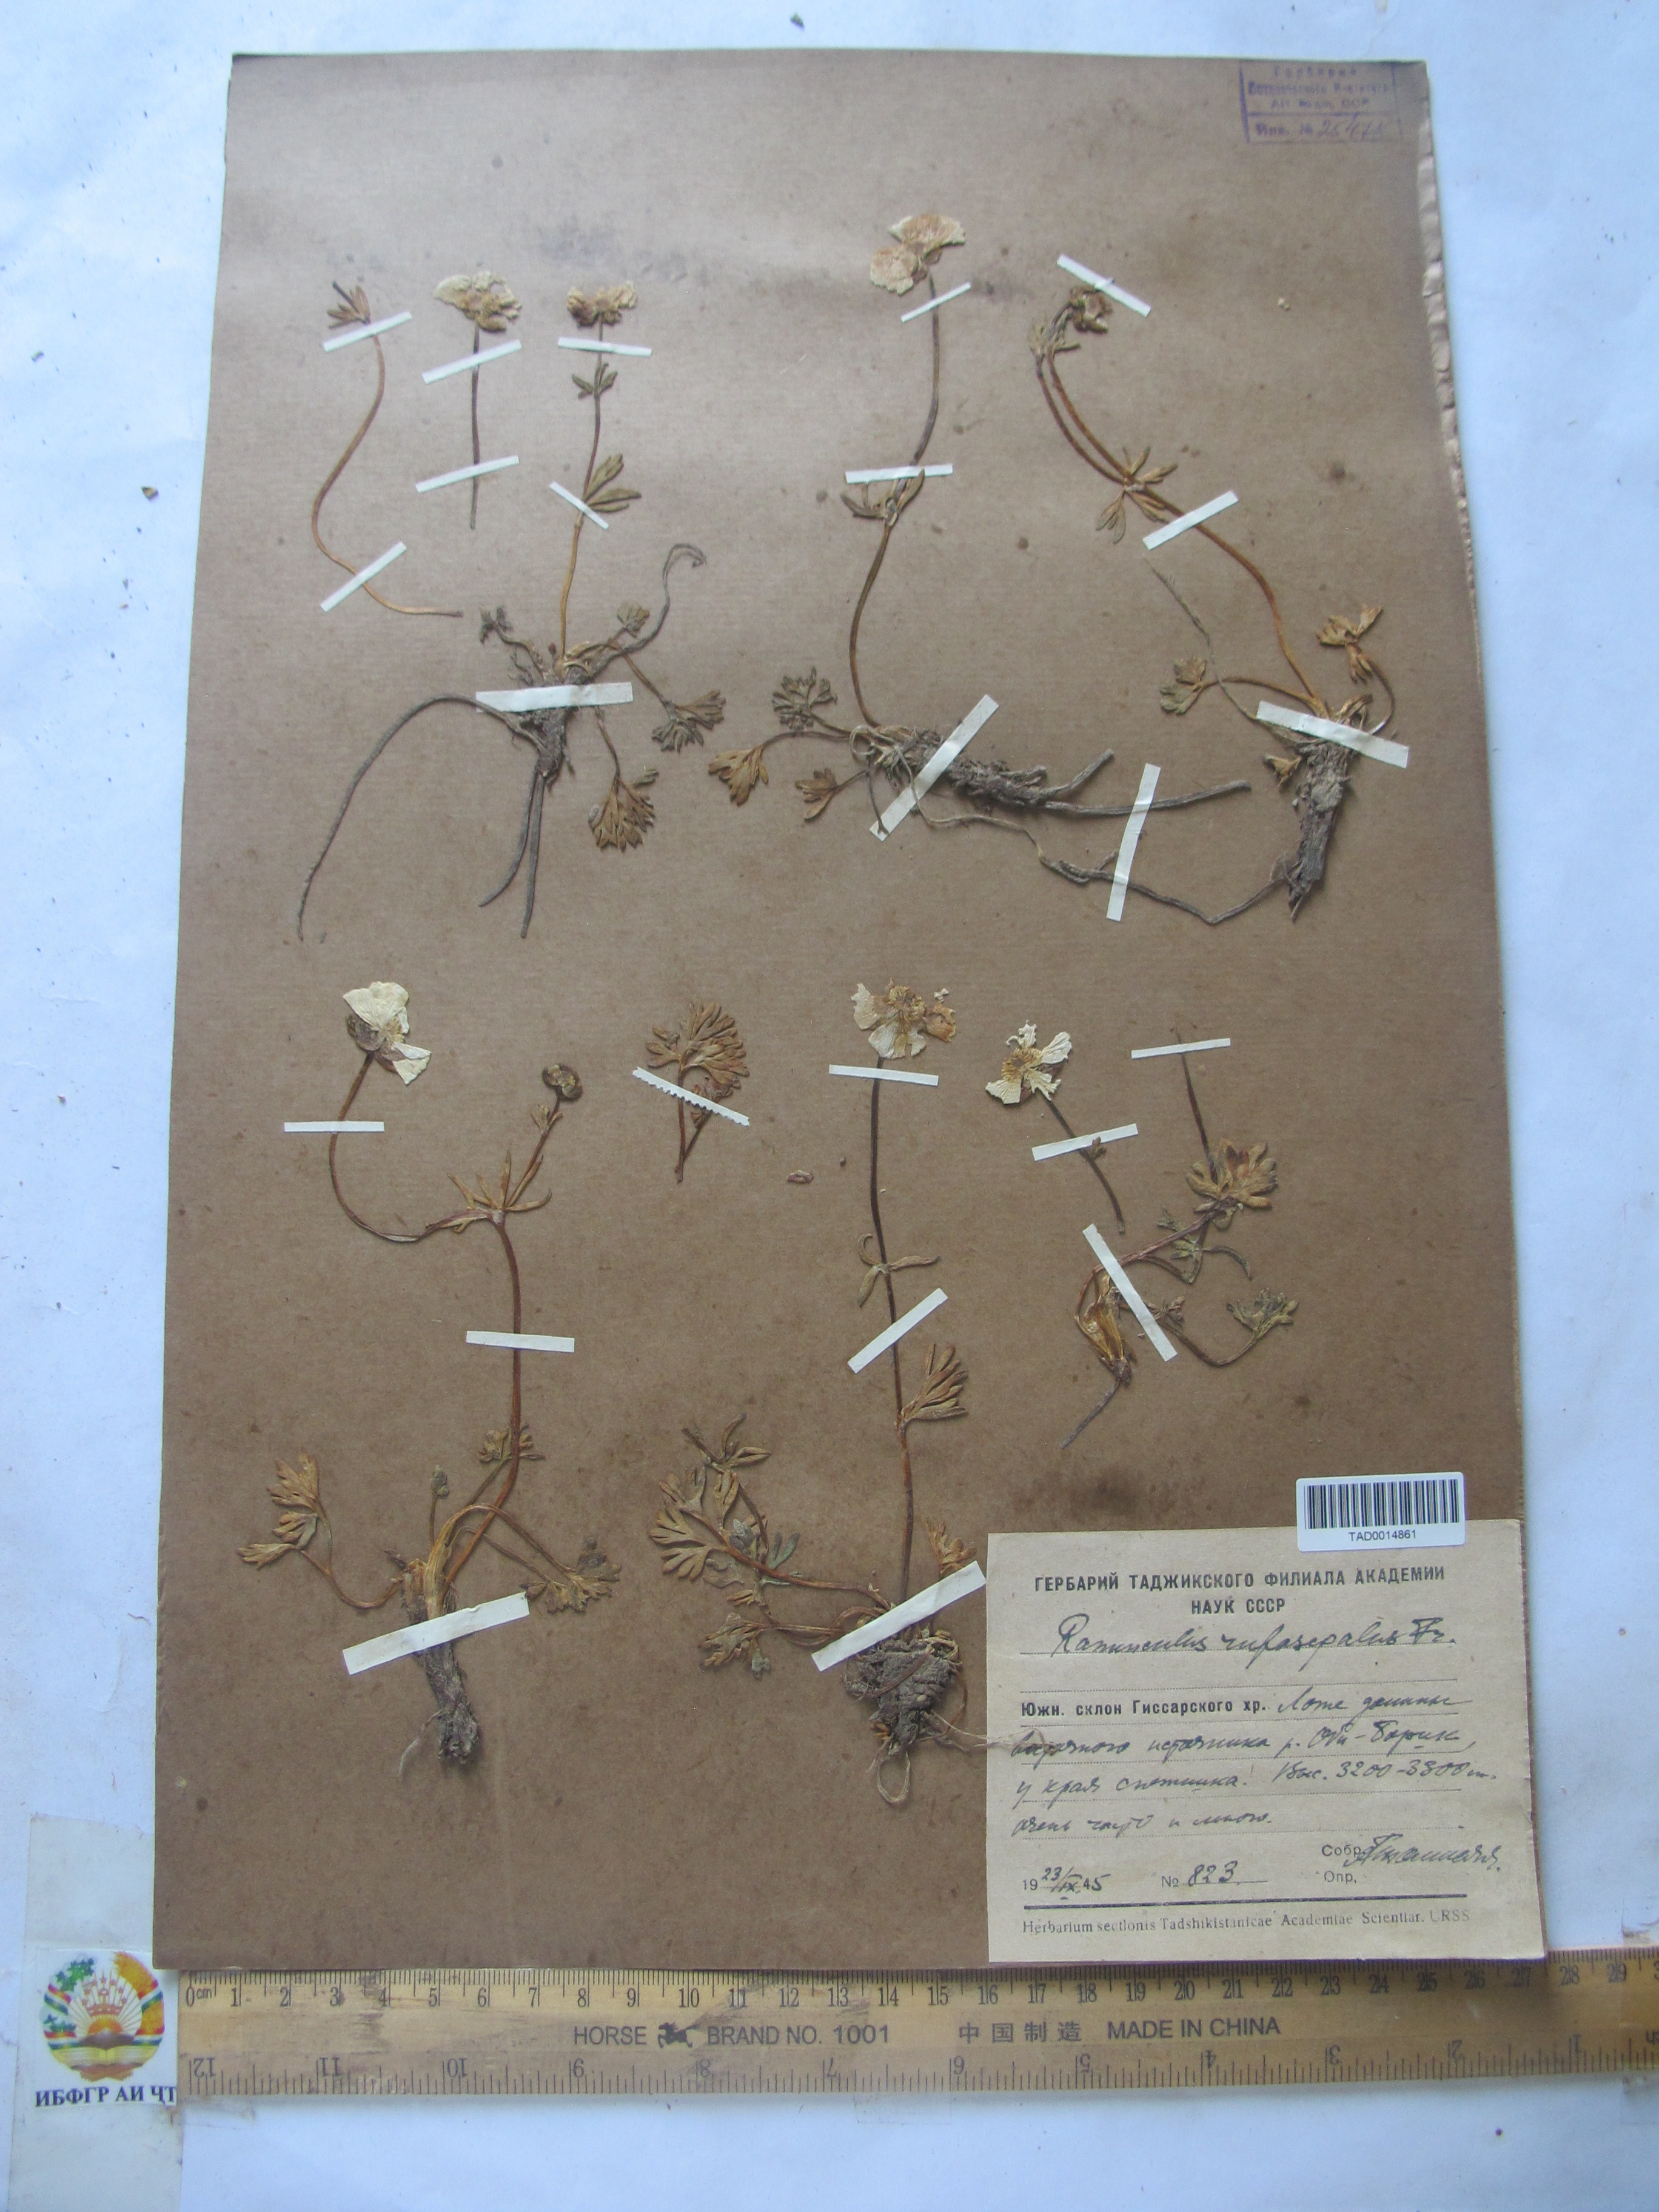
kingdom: Plantae
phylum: Tracheophyta
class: Magnoliopsida
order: Ranunculales
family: Ranunculaceae
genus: Ranunculus
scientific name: Ranunculus rufosepalus
